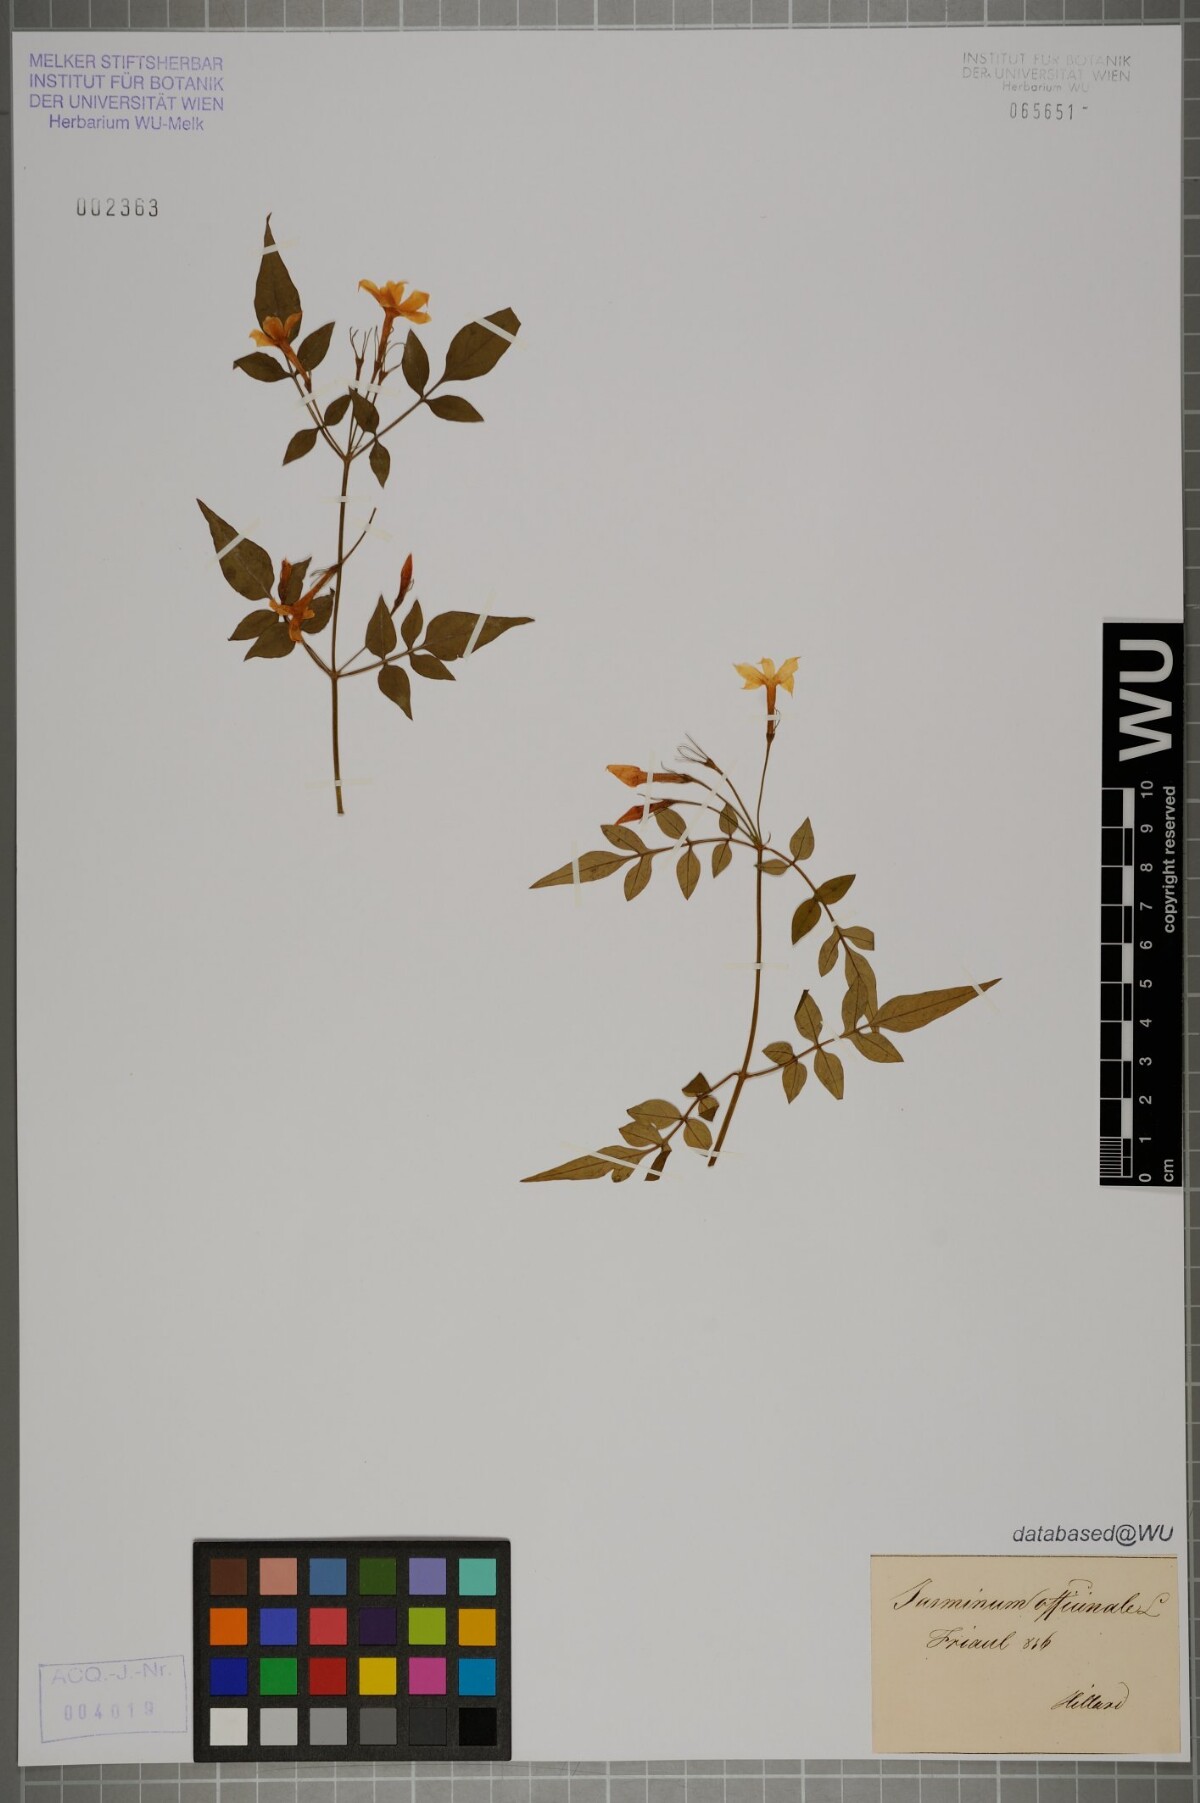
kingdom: Plantae
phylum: Tracheophyta
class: Magnoliopsida
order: Lamiales
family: Oleaceae
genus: Jasminum
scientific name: Jasminum officinale
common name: Summer jasmine
